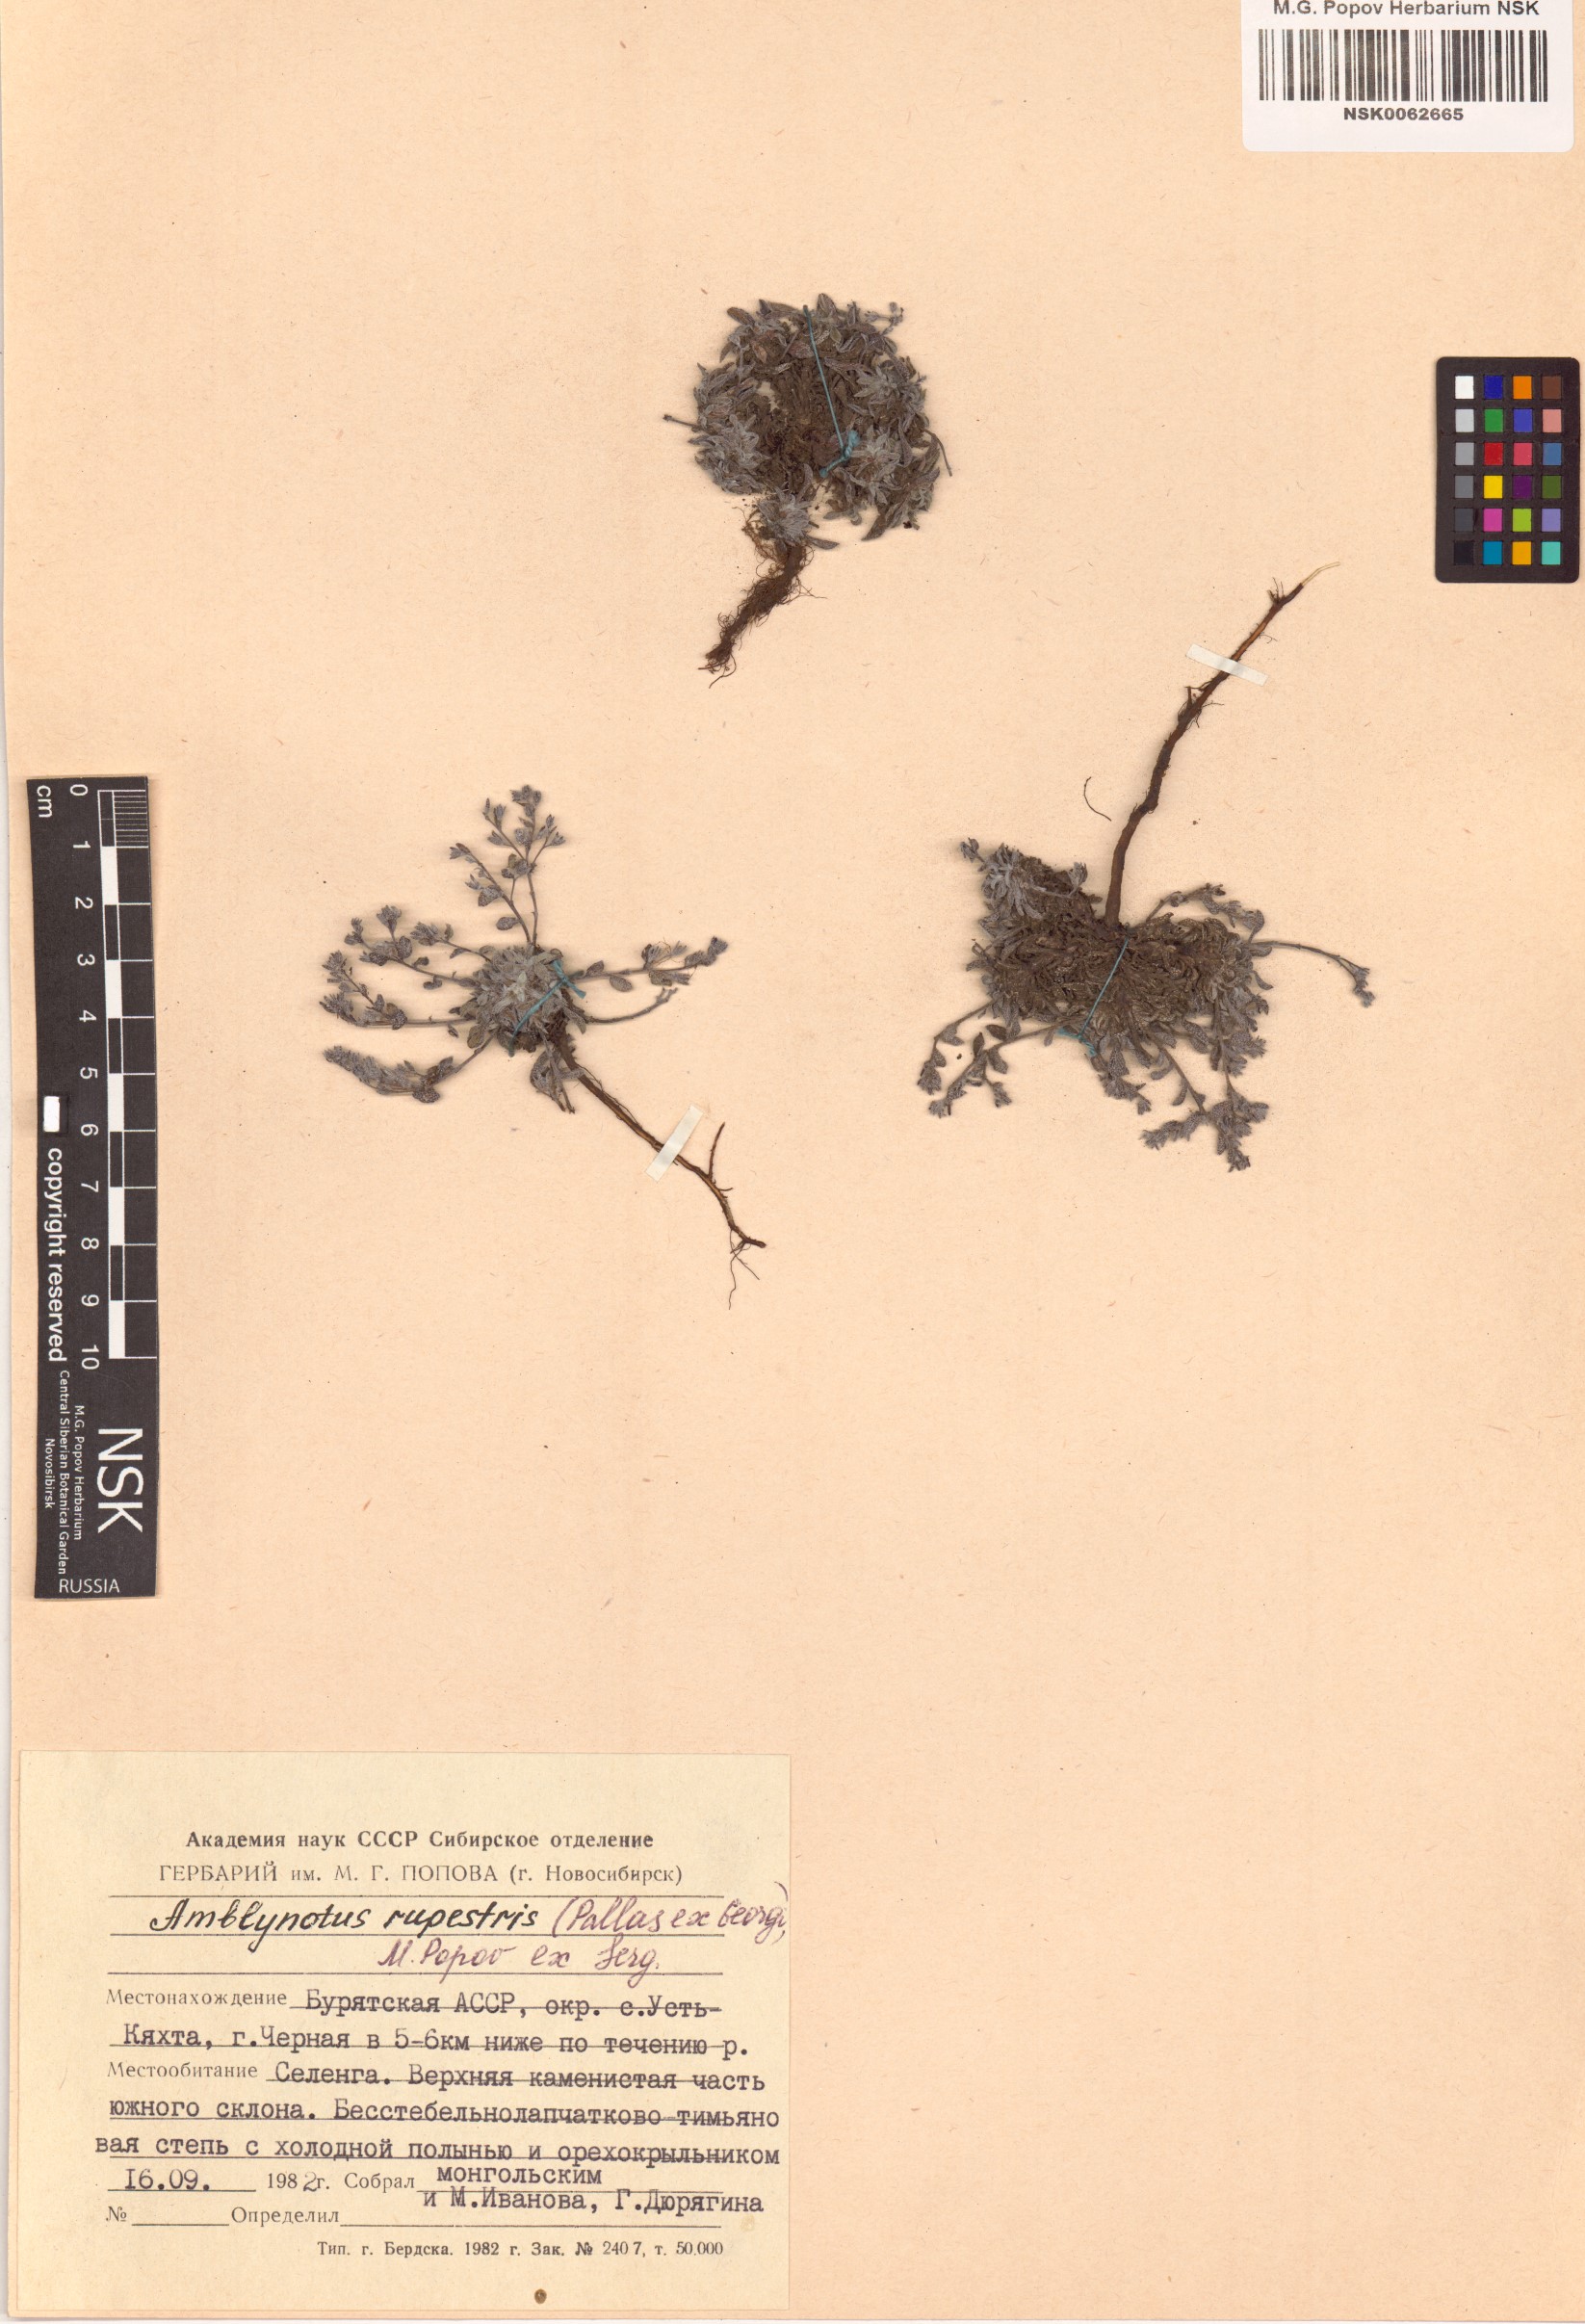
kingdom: Plantae
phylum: Tracheophyta
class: Magnoliopsida
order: Boraginales
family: Boraginaceae
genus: Eritrichium
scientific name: Eritrichium rupestre
